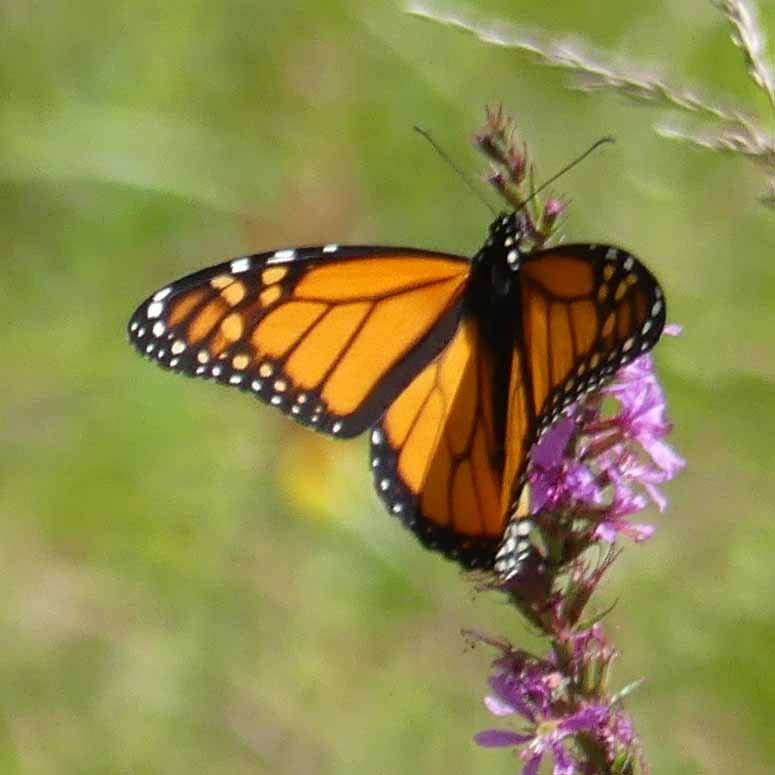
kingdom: Animalia
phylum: Arthropoda
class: Insecta
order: Lepidoptera
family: Nymphalidae
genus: Danaus
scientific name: Danaus plexippus
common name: Monarch
